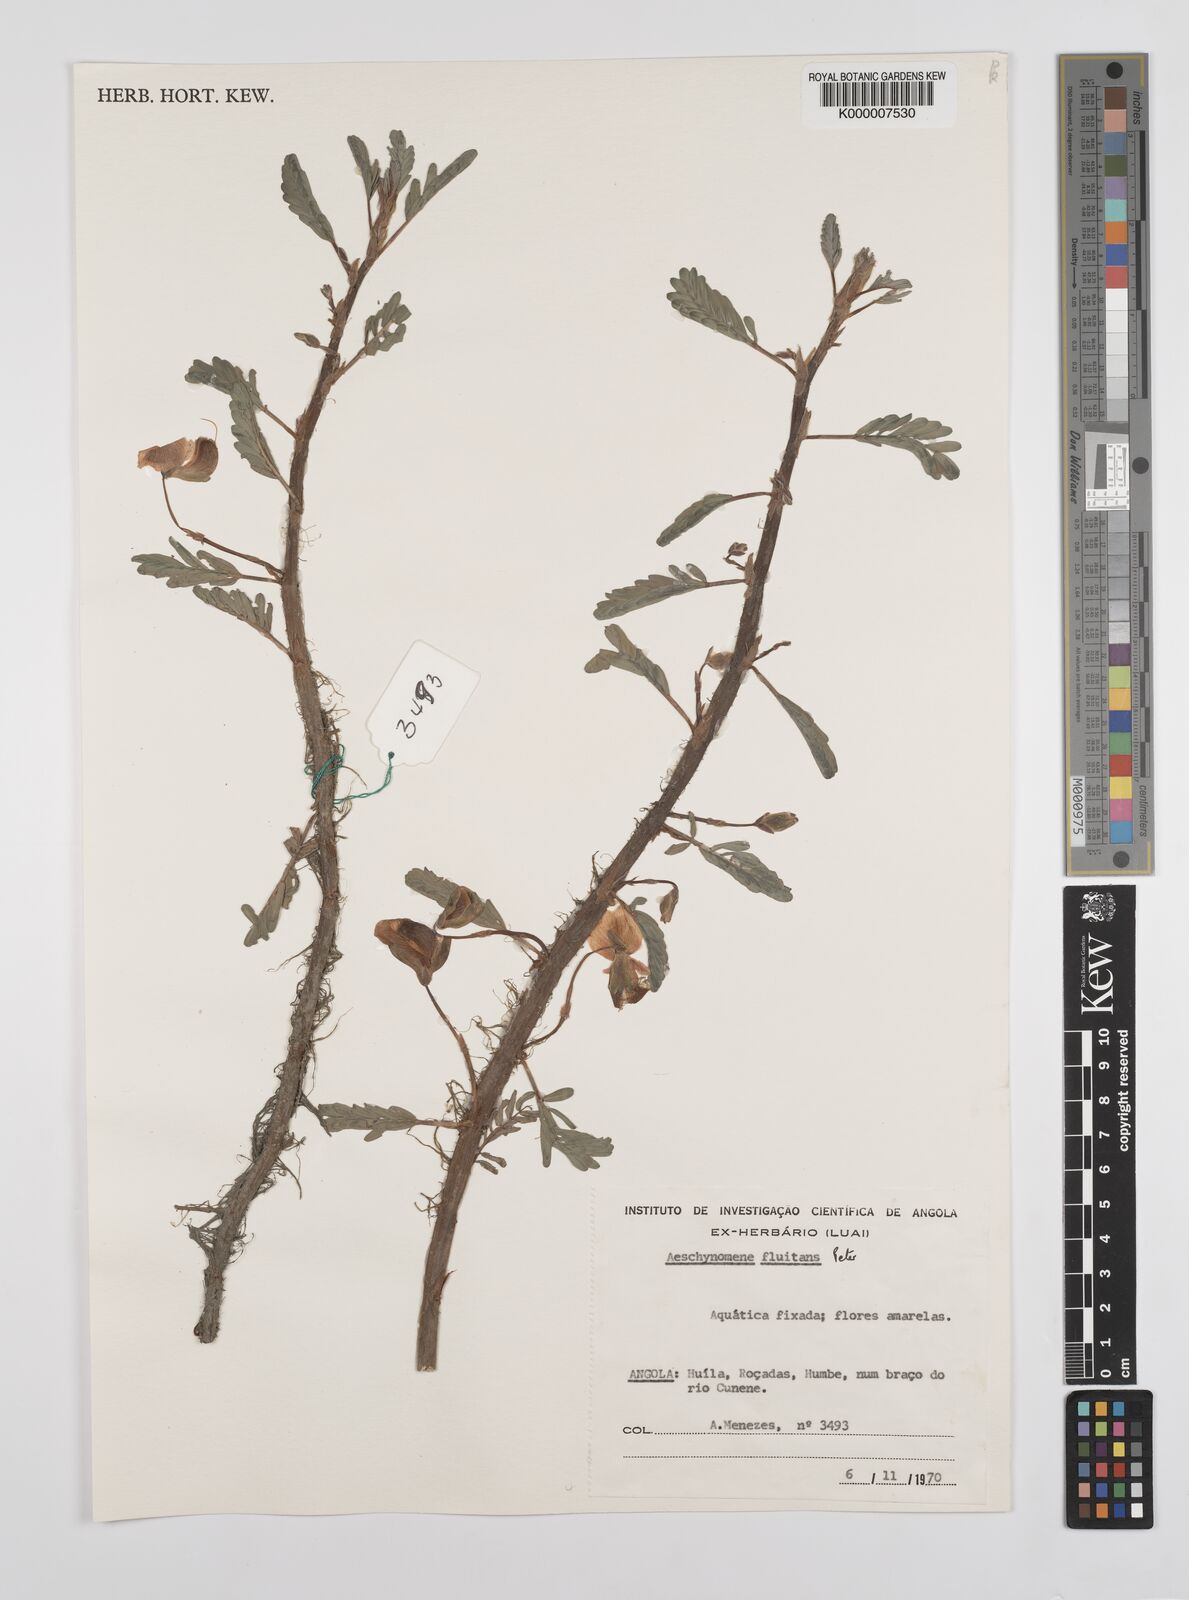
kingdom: Plantae
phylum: Tracheophyta
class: Magnoliopsida
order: Fabales
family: Fabaceae
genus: Aeschynomene
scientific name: Aeschynomene fluitans
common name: Giant water sensitive plant
